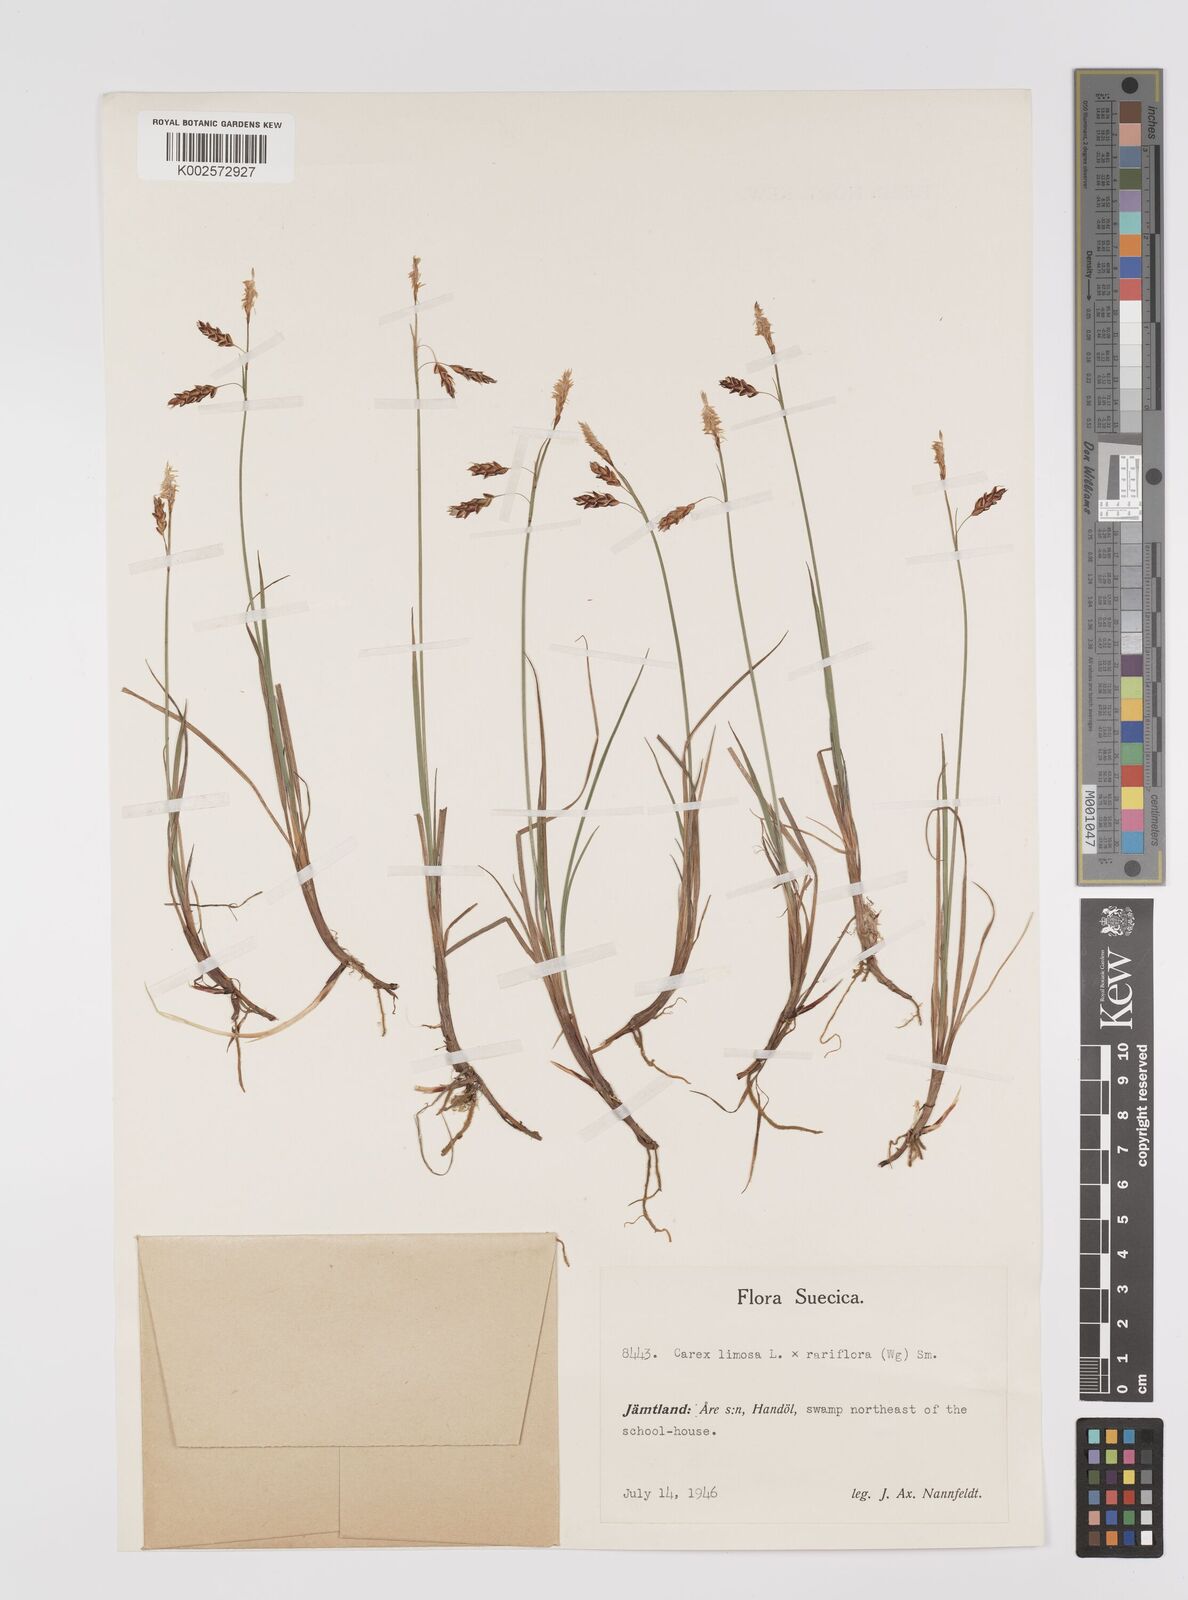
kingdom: Plantae
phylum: Tracheophyta
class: Liliopsida
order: Poales
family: Cyperaceae
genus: Carex
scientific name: Carex rariflora
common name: Loose-flowered alpine sedge
